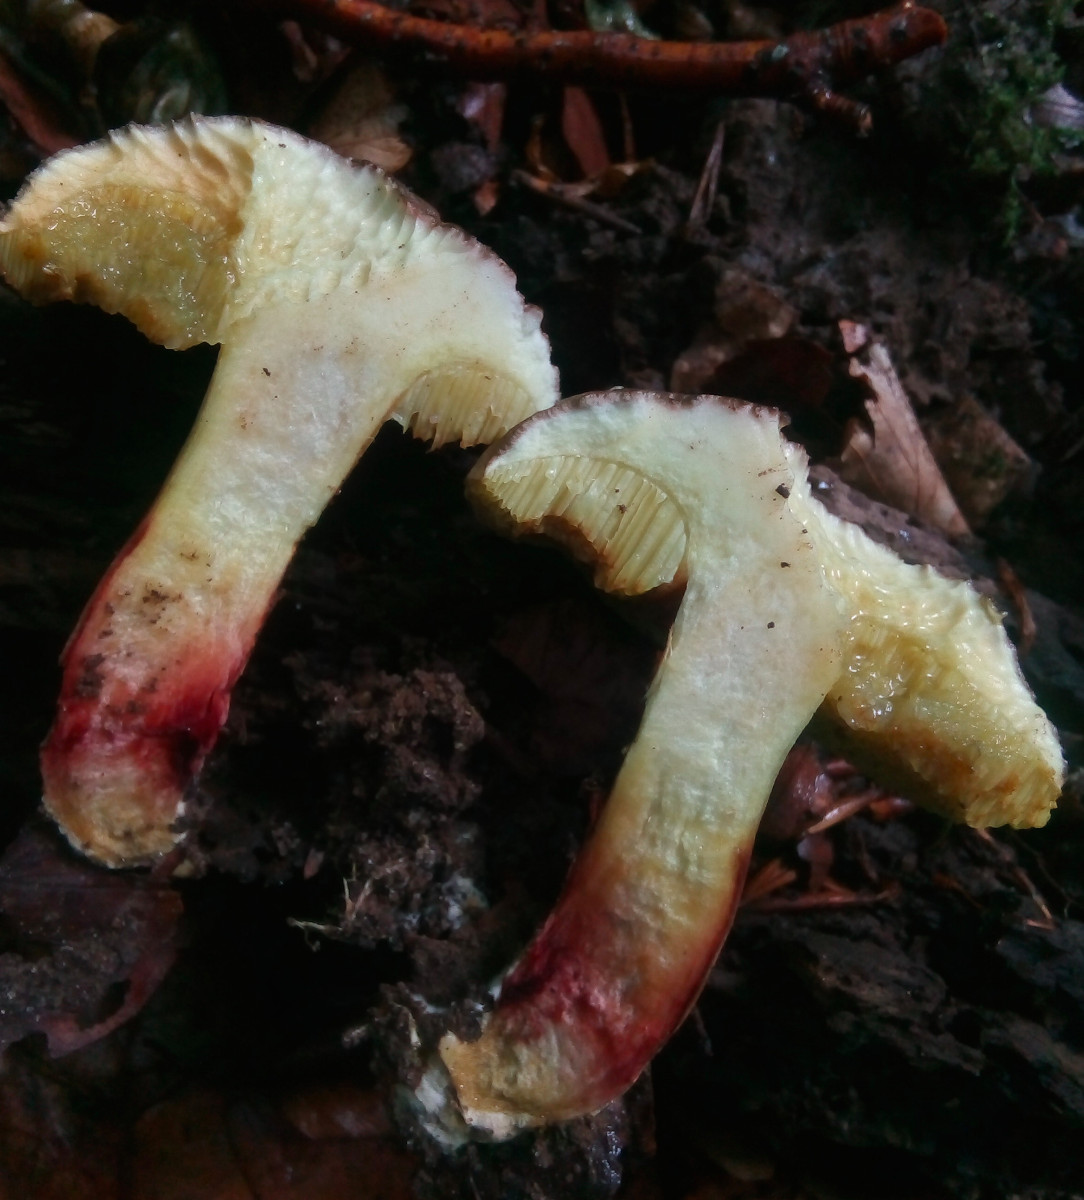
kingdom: Fungi
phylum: Basidiomycota
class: Agaricomycetes
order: Boletales
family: Boletaceae
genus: Xerocomellus
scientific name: Xerocomellus chrysenteron
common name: rødsprukken rørhat
